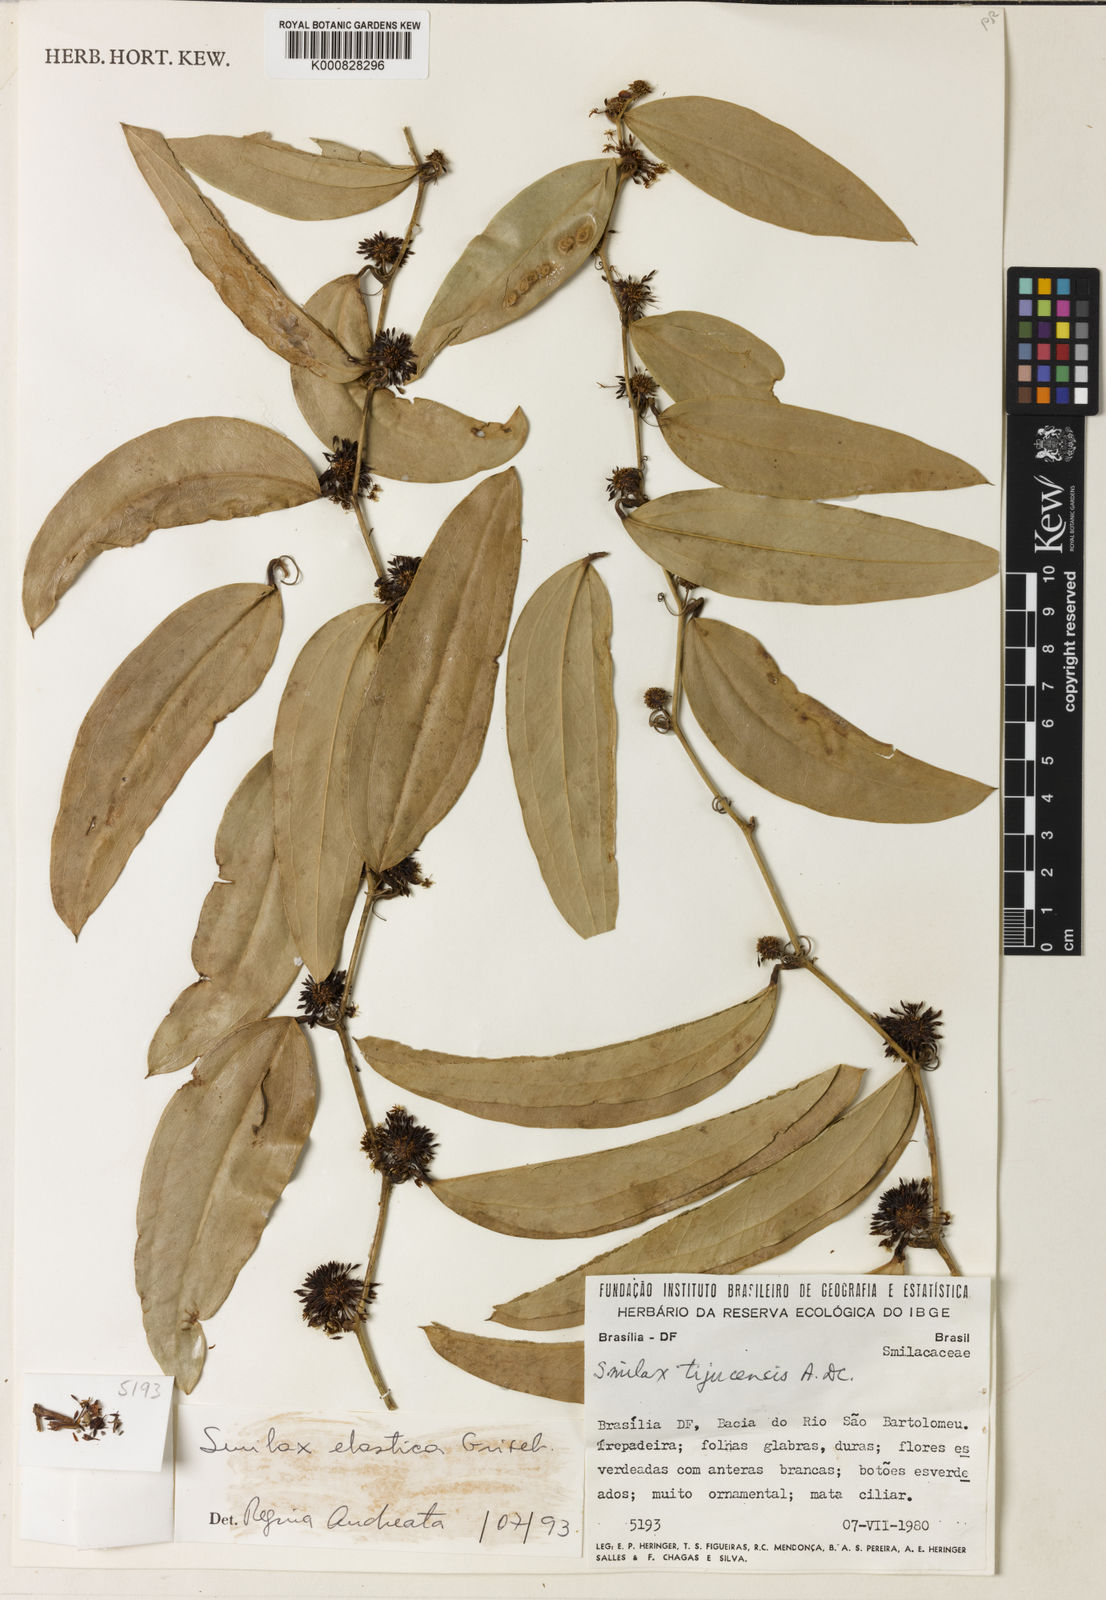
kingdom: Plantae
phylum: Tracheophyta
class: Liliopsida
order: Liliales
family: Smilacaceae
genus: Smilax
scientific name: Smilax elastica
